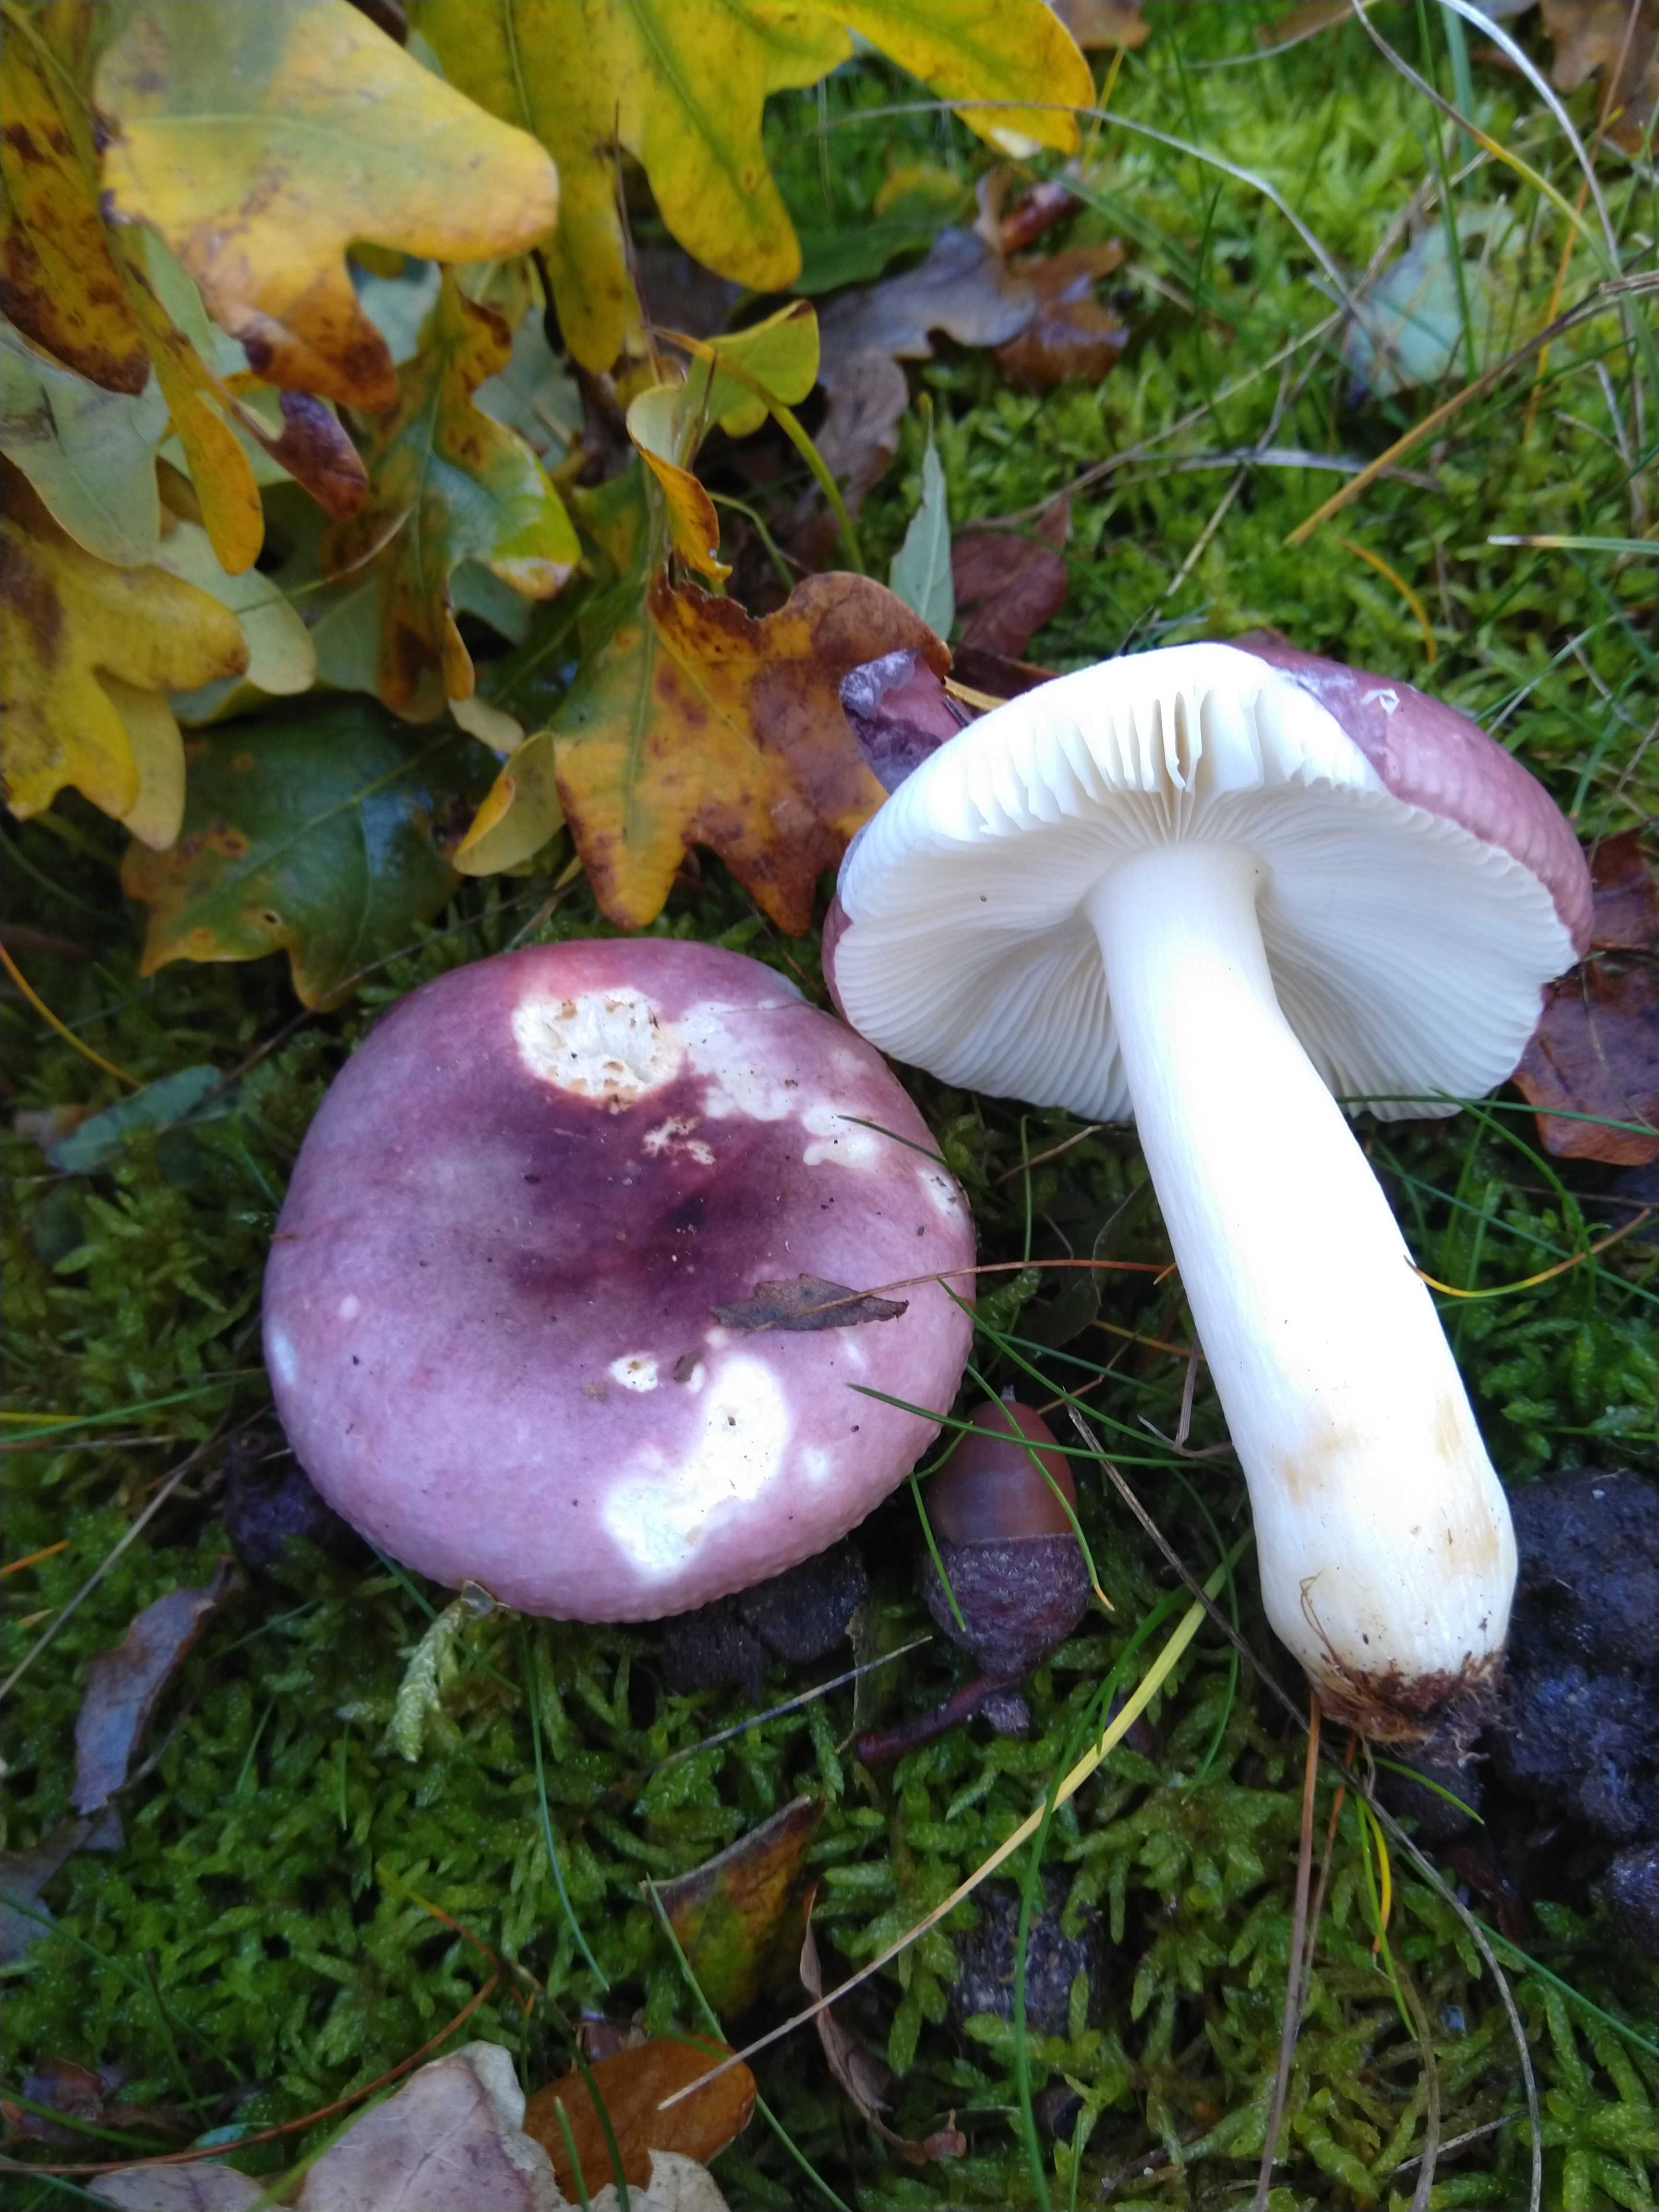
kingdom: Fungi
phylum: Basidiomycota
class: Agaricomycetes
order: Russulales
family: Russulaceae
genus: Russula
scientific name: Russula
